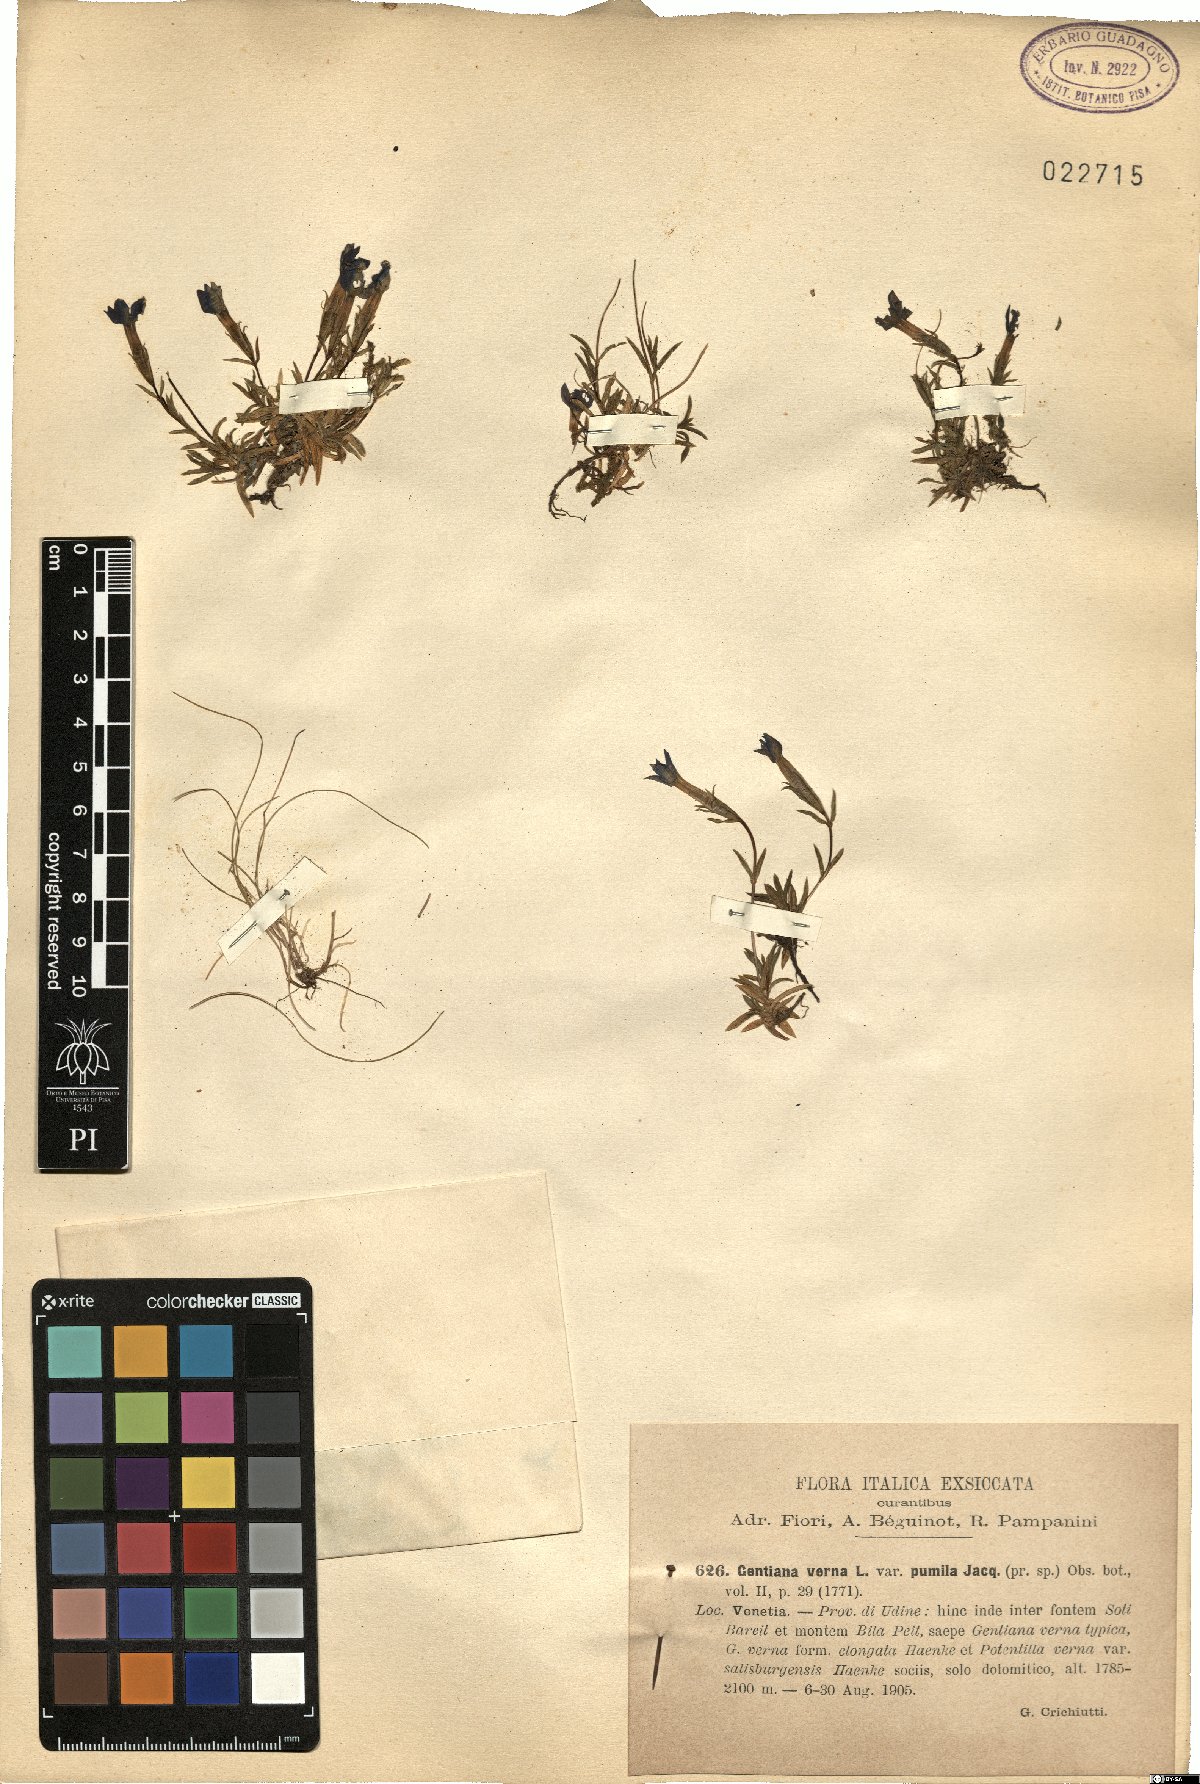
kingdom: Plantae
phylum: Tracheophyta
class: Magnoliopsida
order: Gentianales
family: Gentianaceae
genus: Gentiana
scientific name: Gentiana pumila
